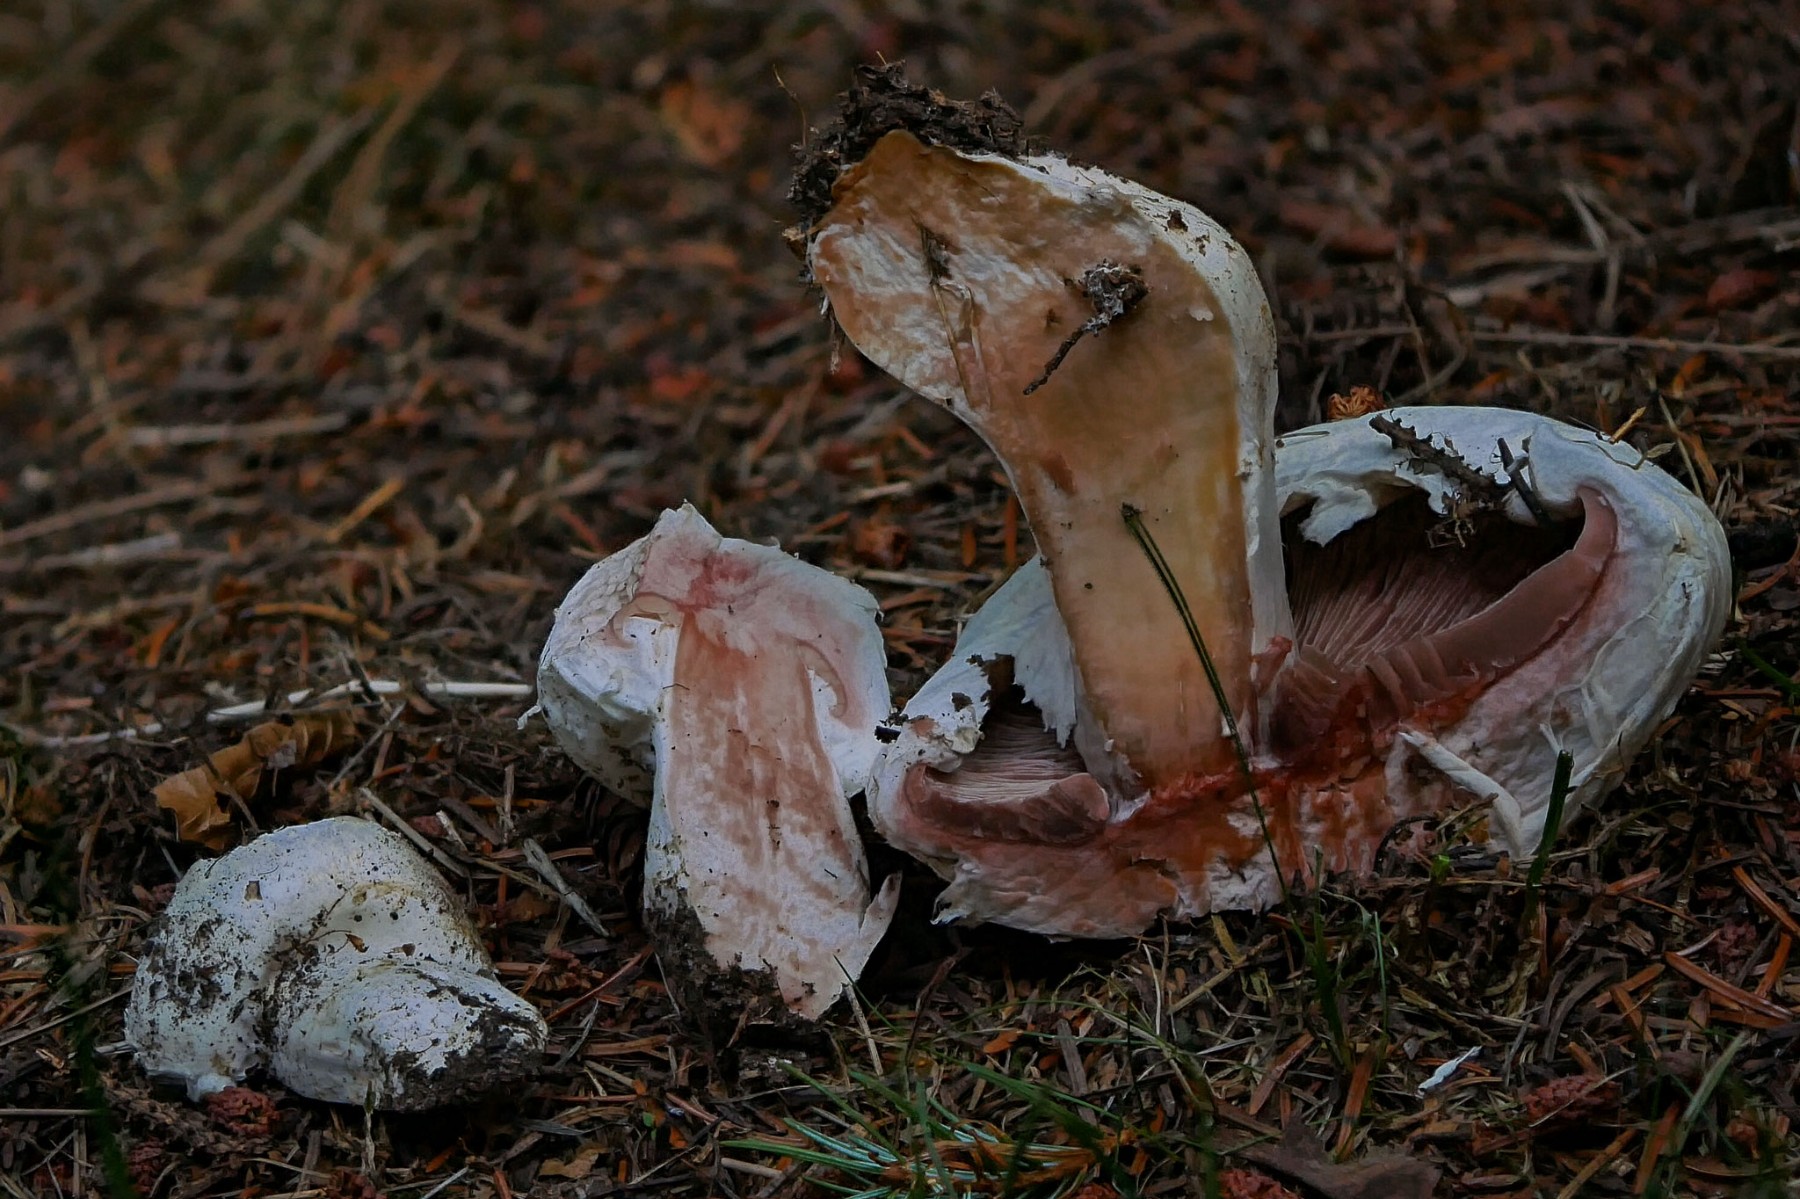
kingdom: Fungi
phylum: Basidiomycota
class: Agaricomycetes
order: Agaricales
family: Agaricaceae
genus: Agaricus
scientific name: Agaricus bernardii
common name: strandengs-champignon
